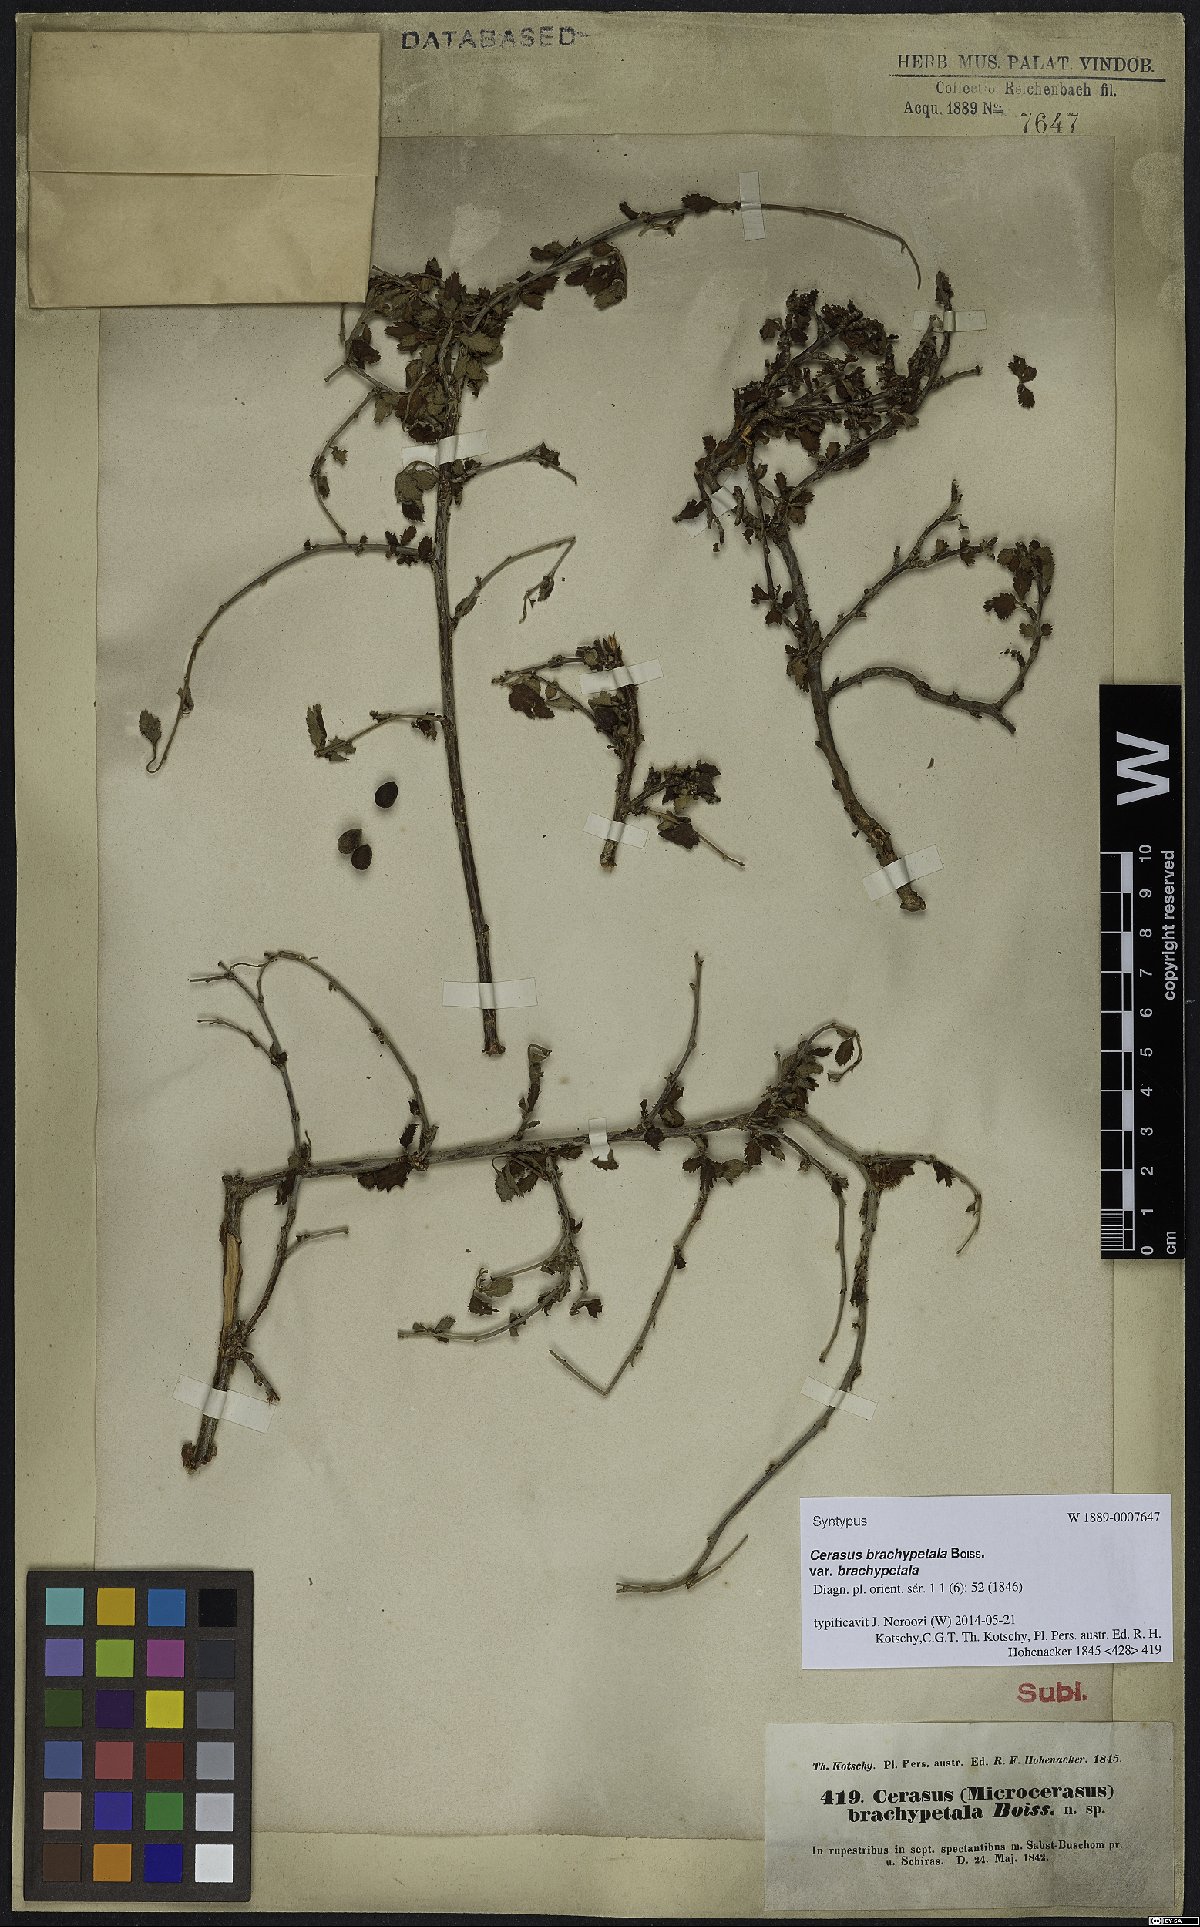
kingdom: Plantae
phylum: Tracheophyta
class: Magnoliopsida
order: Rosales
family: Rosaceae
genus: Prunus
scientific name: Prunus brachypetala
